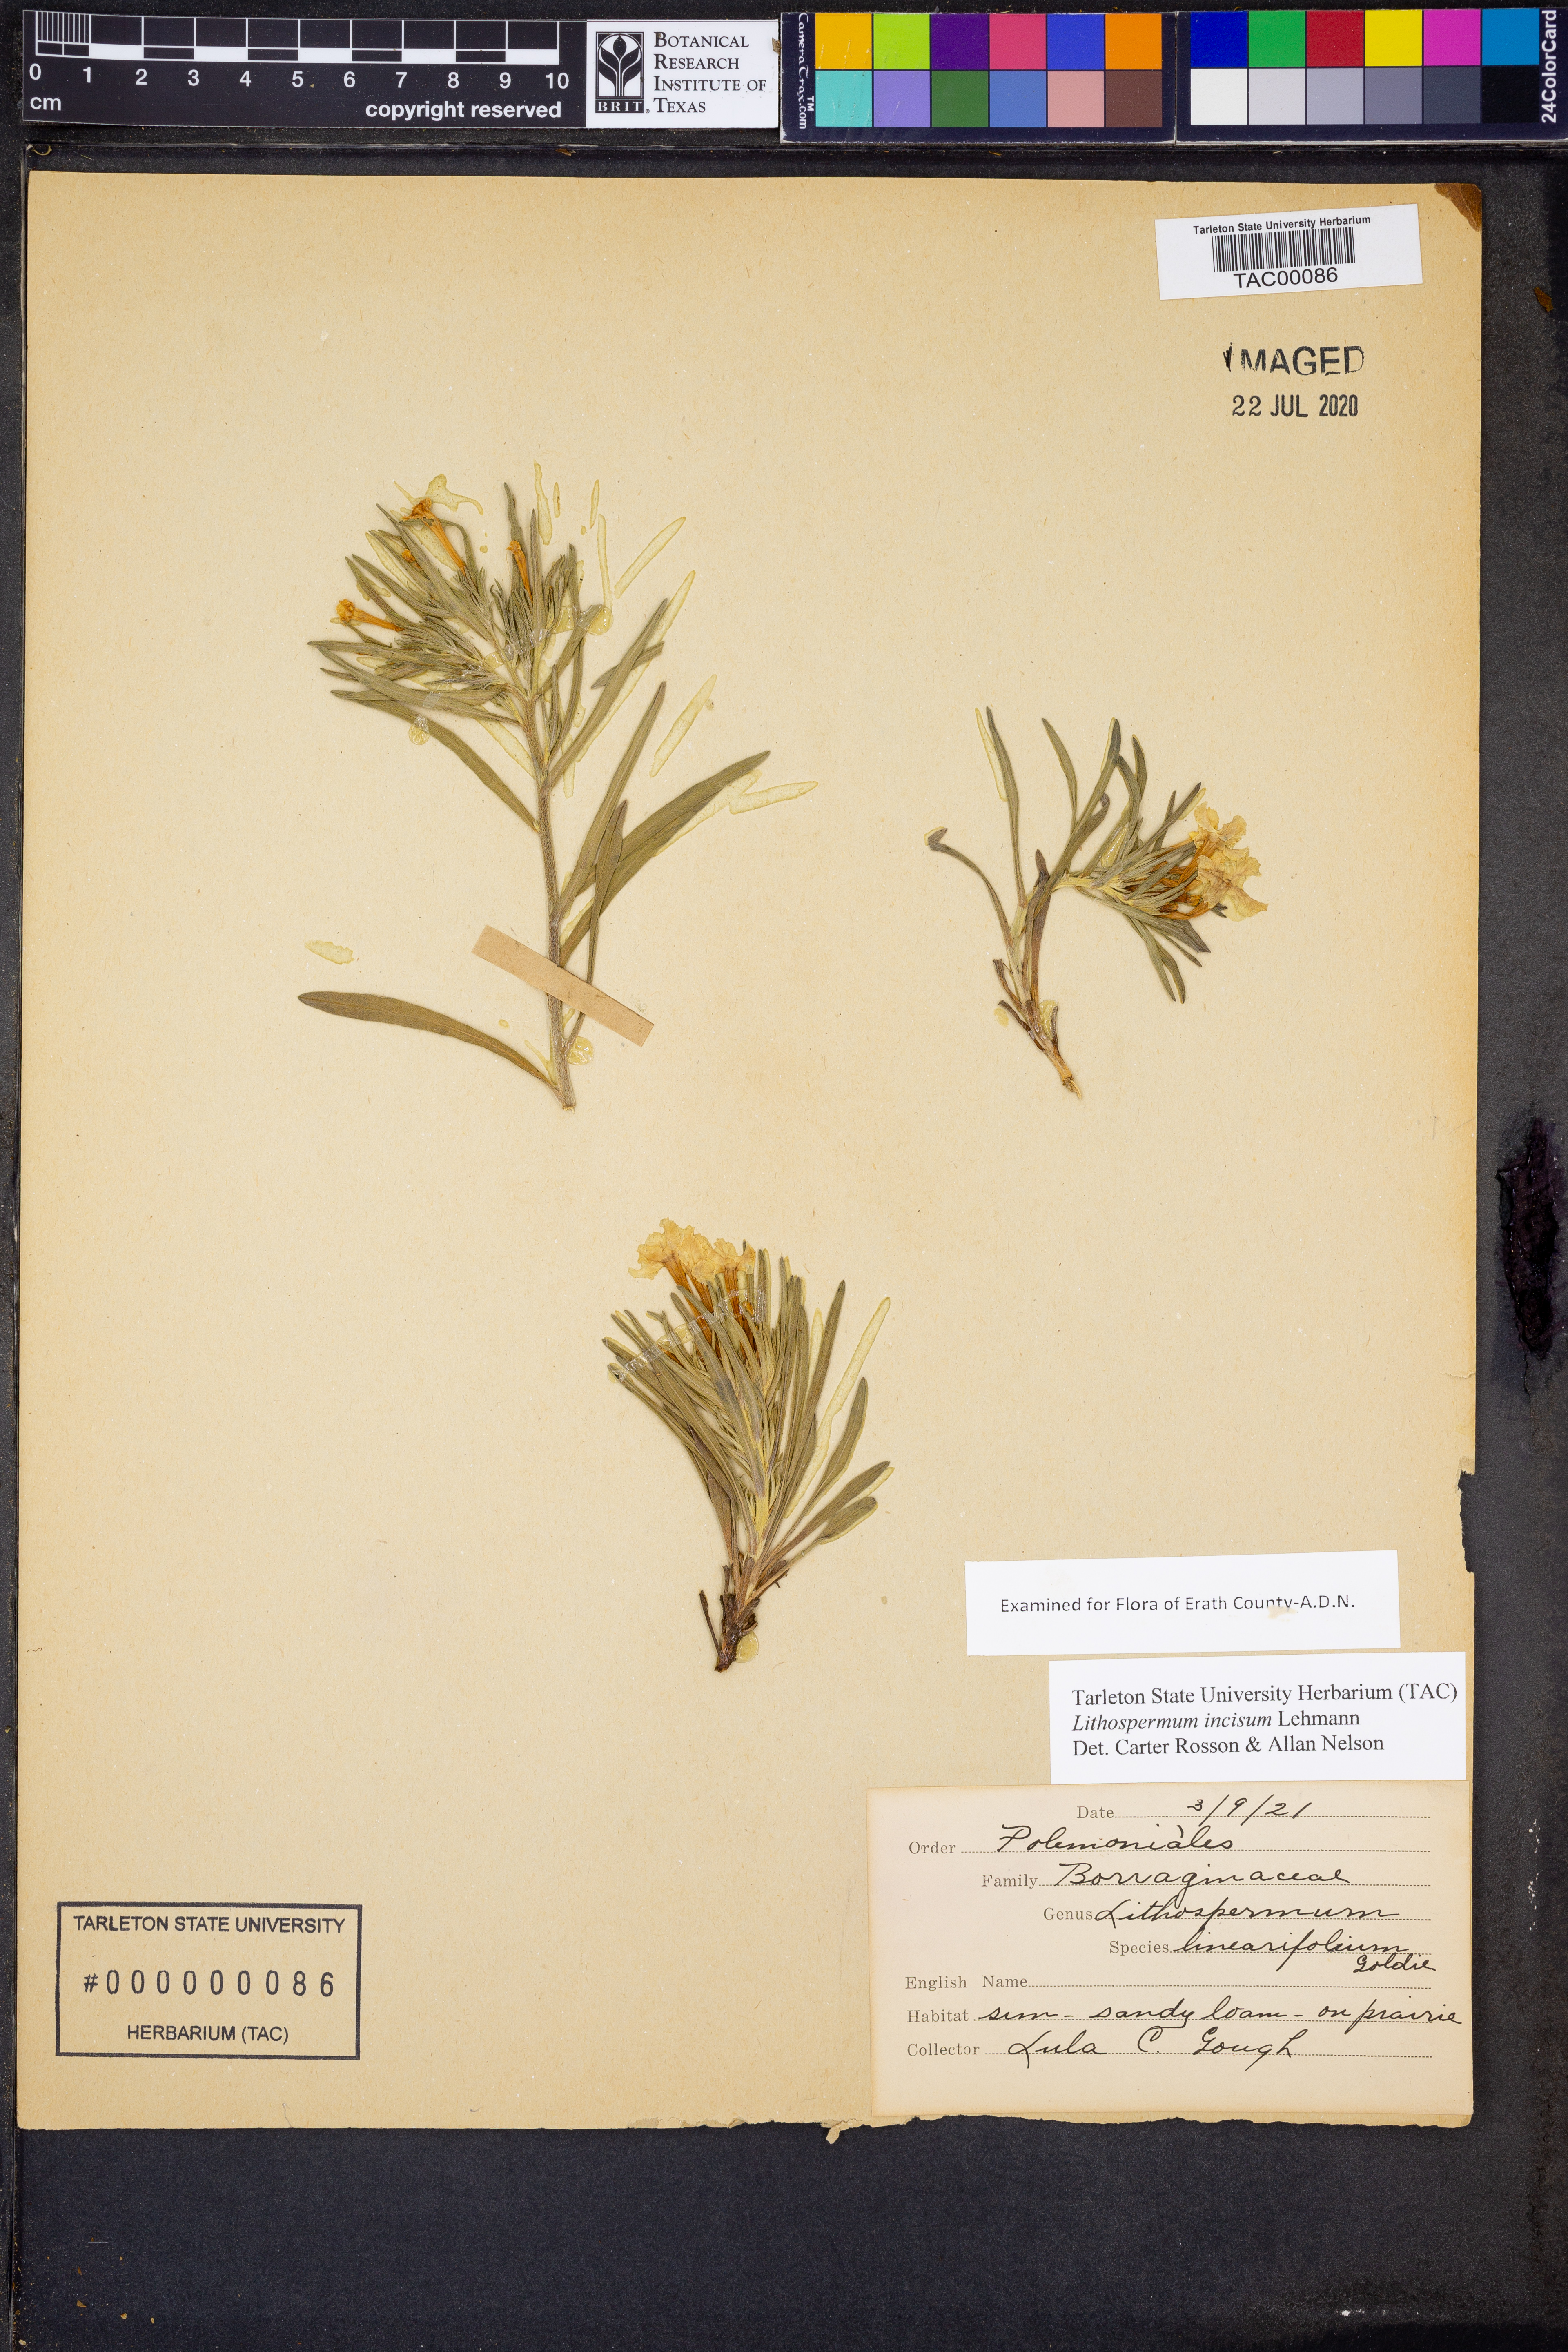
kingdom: Plantae
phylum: Tracheophyta
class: Magnoliopsida
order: Boraginales
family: Boraginaceae
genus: Lithospermum
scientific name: Lithospermum incisum
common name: Fringed gromwell
